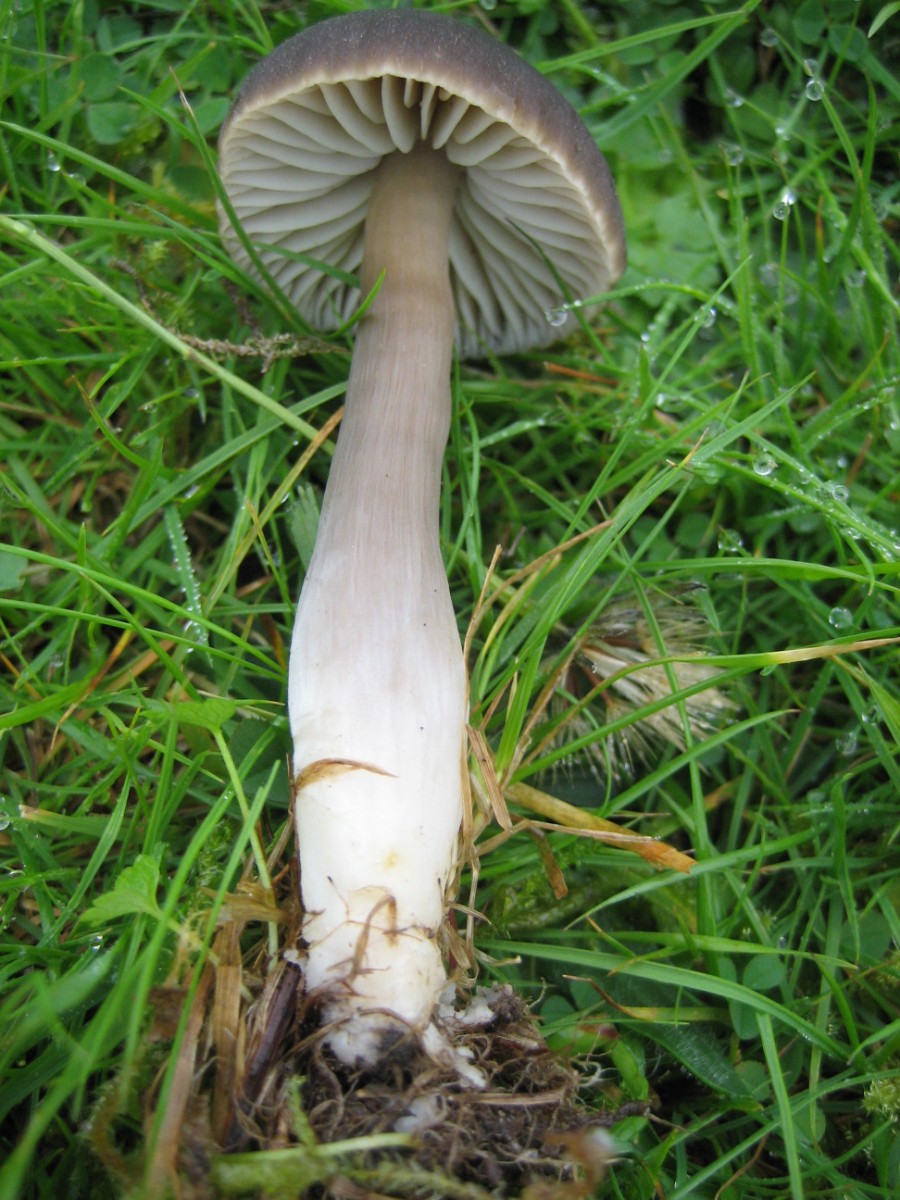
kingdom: Fungi
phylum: Basidiomycota
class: Agaricomycetes
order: Agaricales
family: Hygrophoraceae
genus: Neohygrocybe
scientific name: Neohygrocybe nitrata
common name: stinkende vokshat
